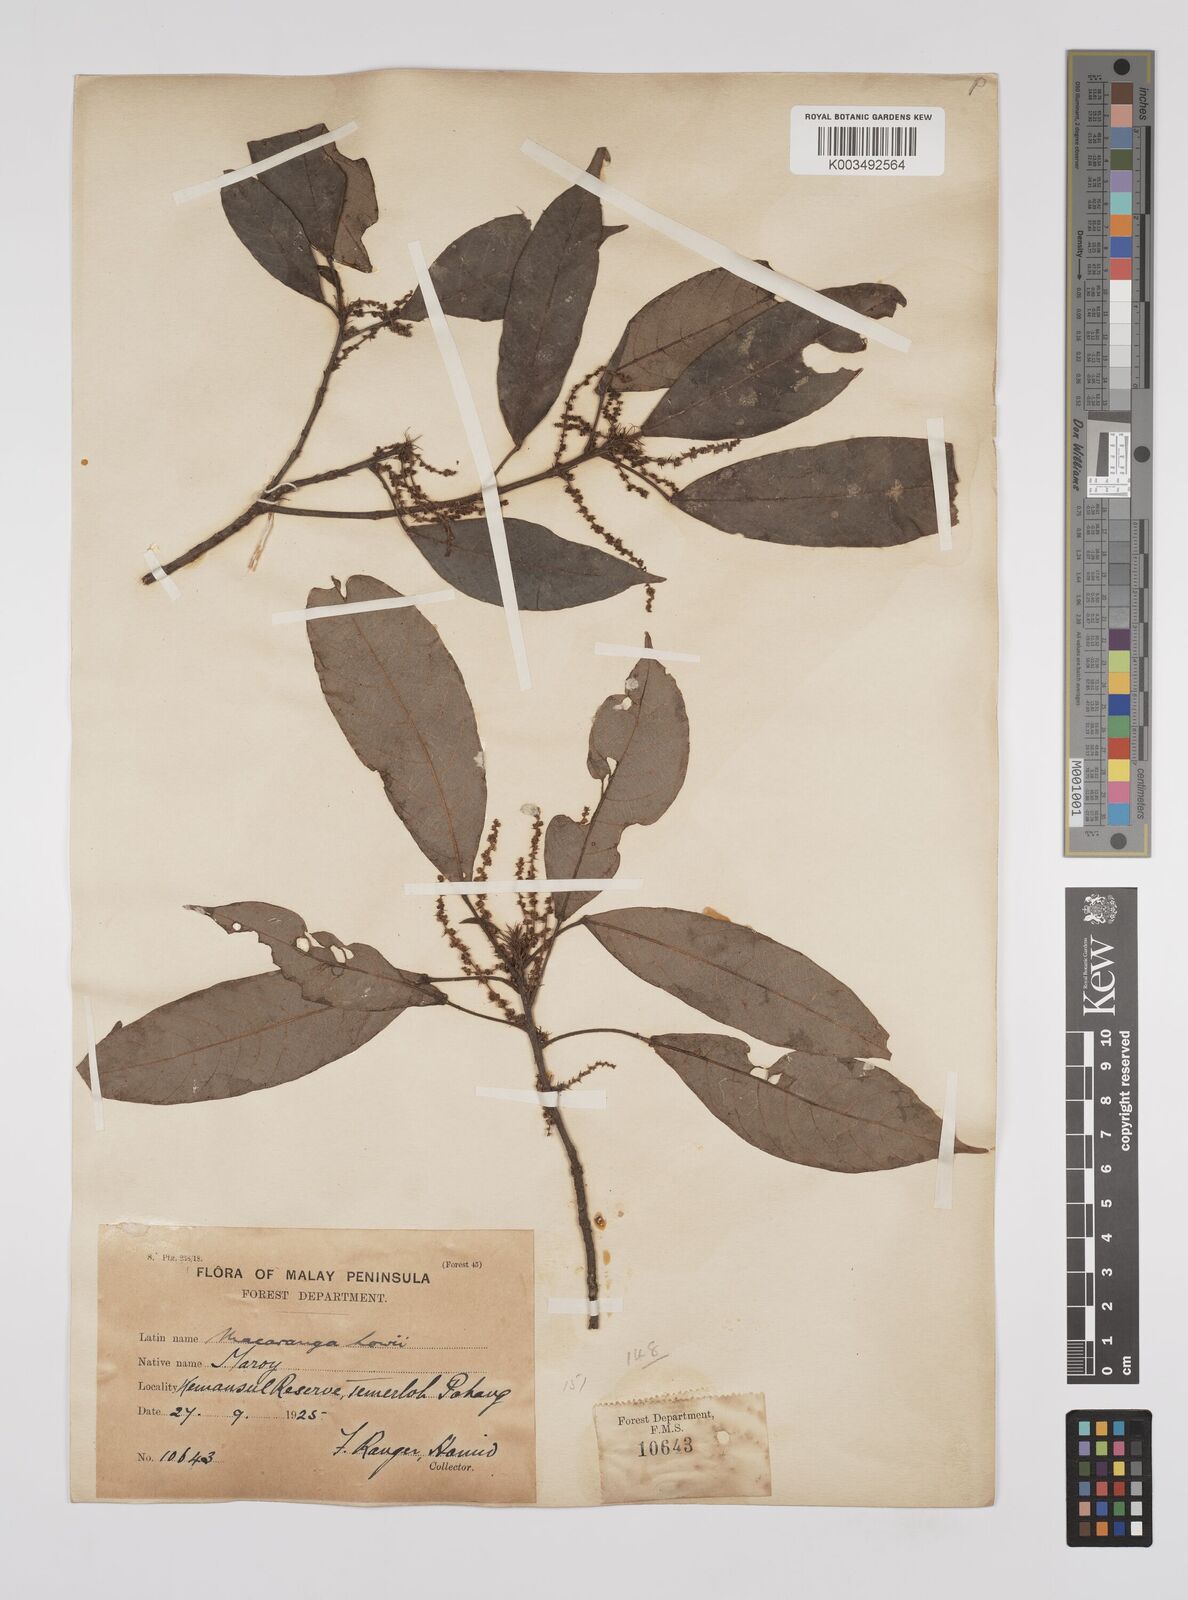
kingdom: Plantae
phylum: Tracheophyta
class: Magnoliopsida
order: Malpighiales
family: Euphorbiaceae
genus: Macaranga
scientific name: Macaranga lowii
